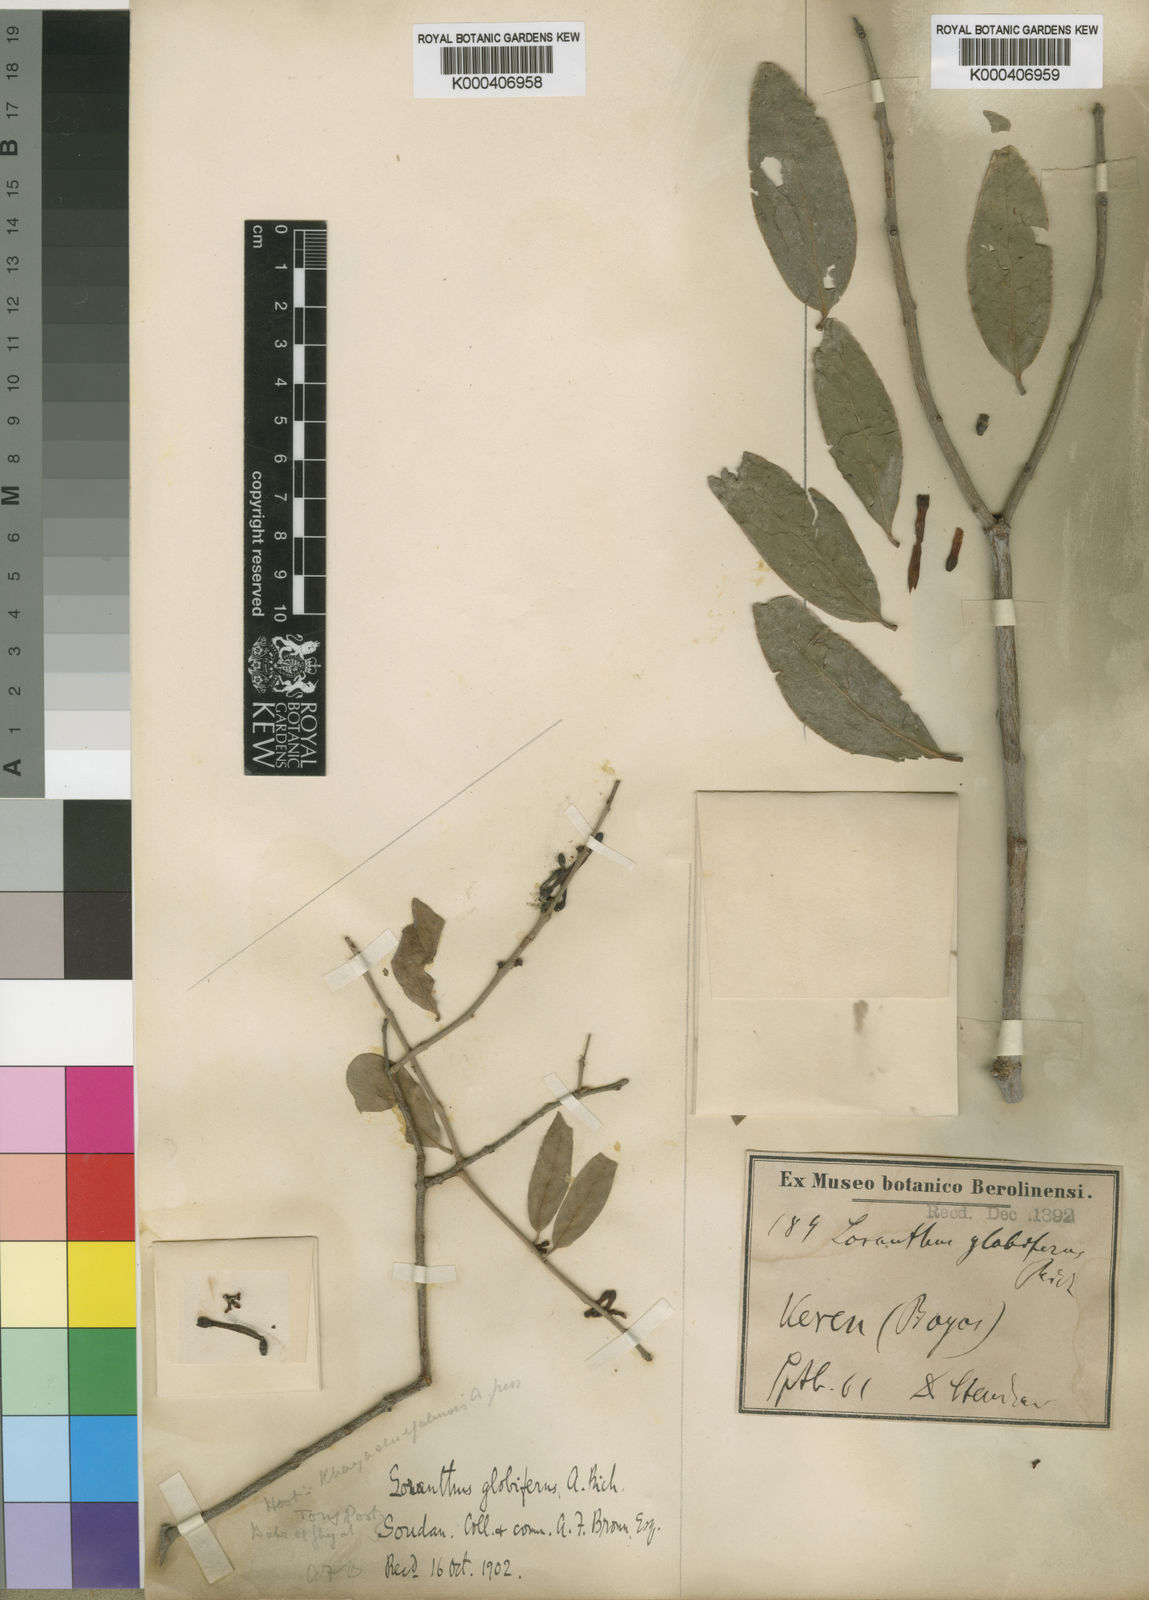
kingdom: Plantae
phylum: Tracheophyta
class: Magnoliopsida
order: Santalales
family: Loranthaceae
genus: Tapinanthus
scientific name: Tapinanthus
